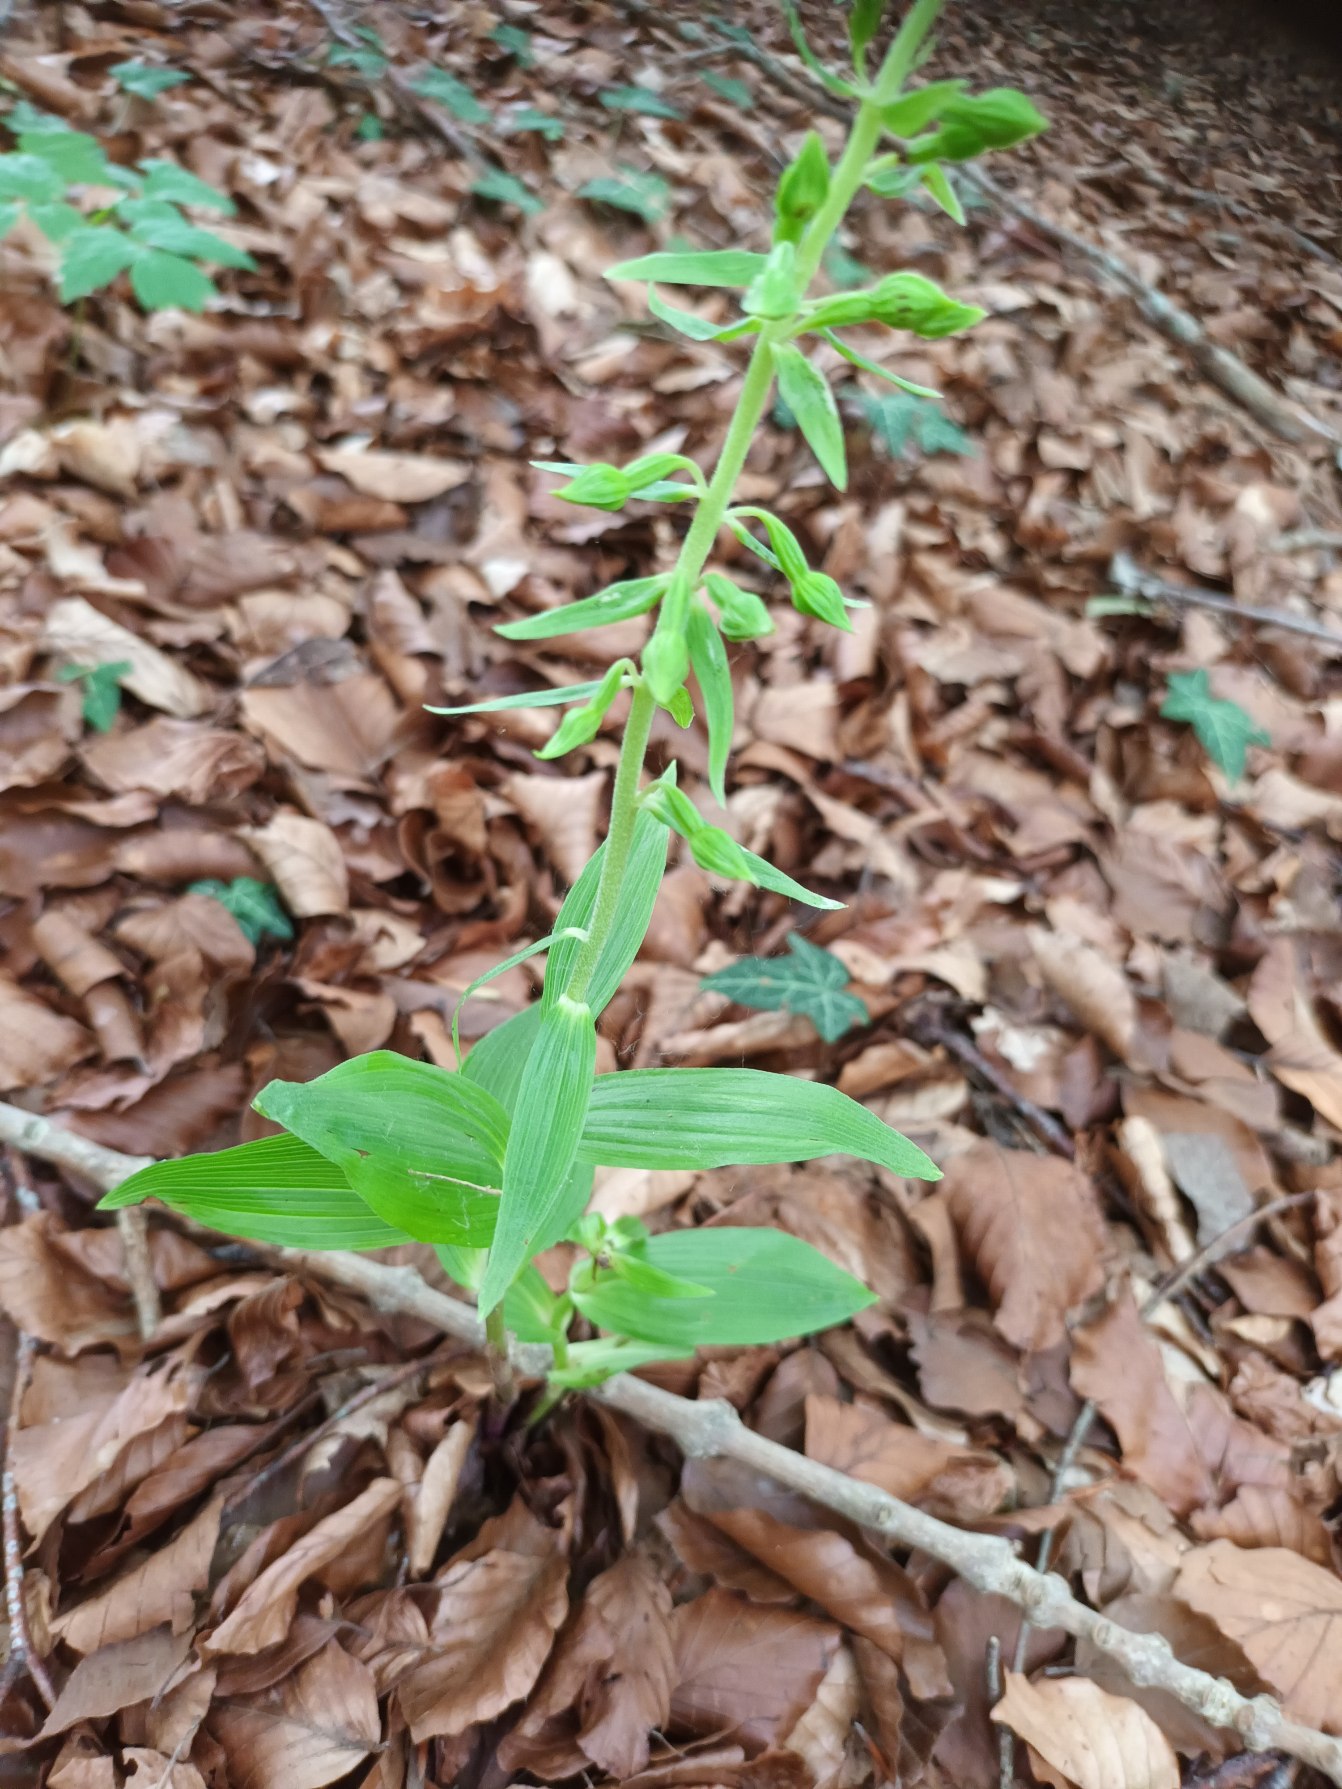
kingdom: Plantae
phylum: Tracheophyta
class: Liliopsida
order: Asparagales
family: Orchidaceae
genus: Epipactis
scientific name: Epipactis leptochila
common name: Storblomstret hullæbe
